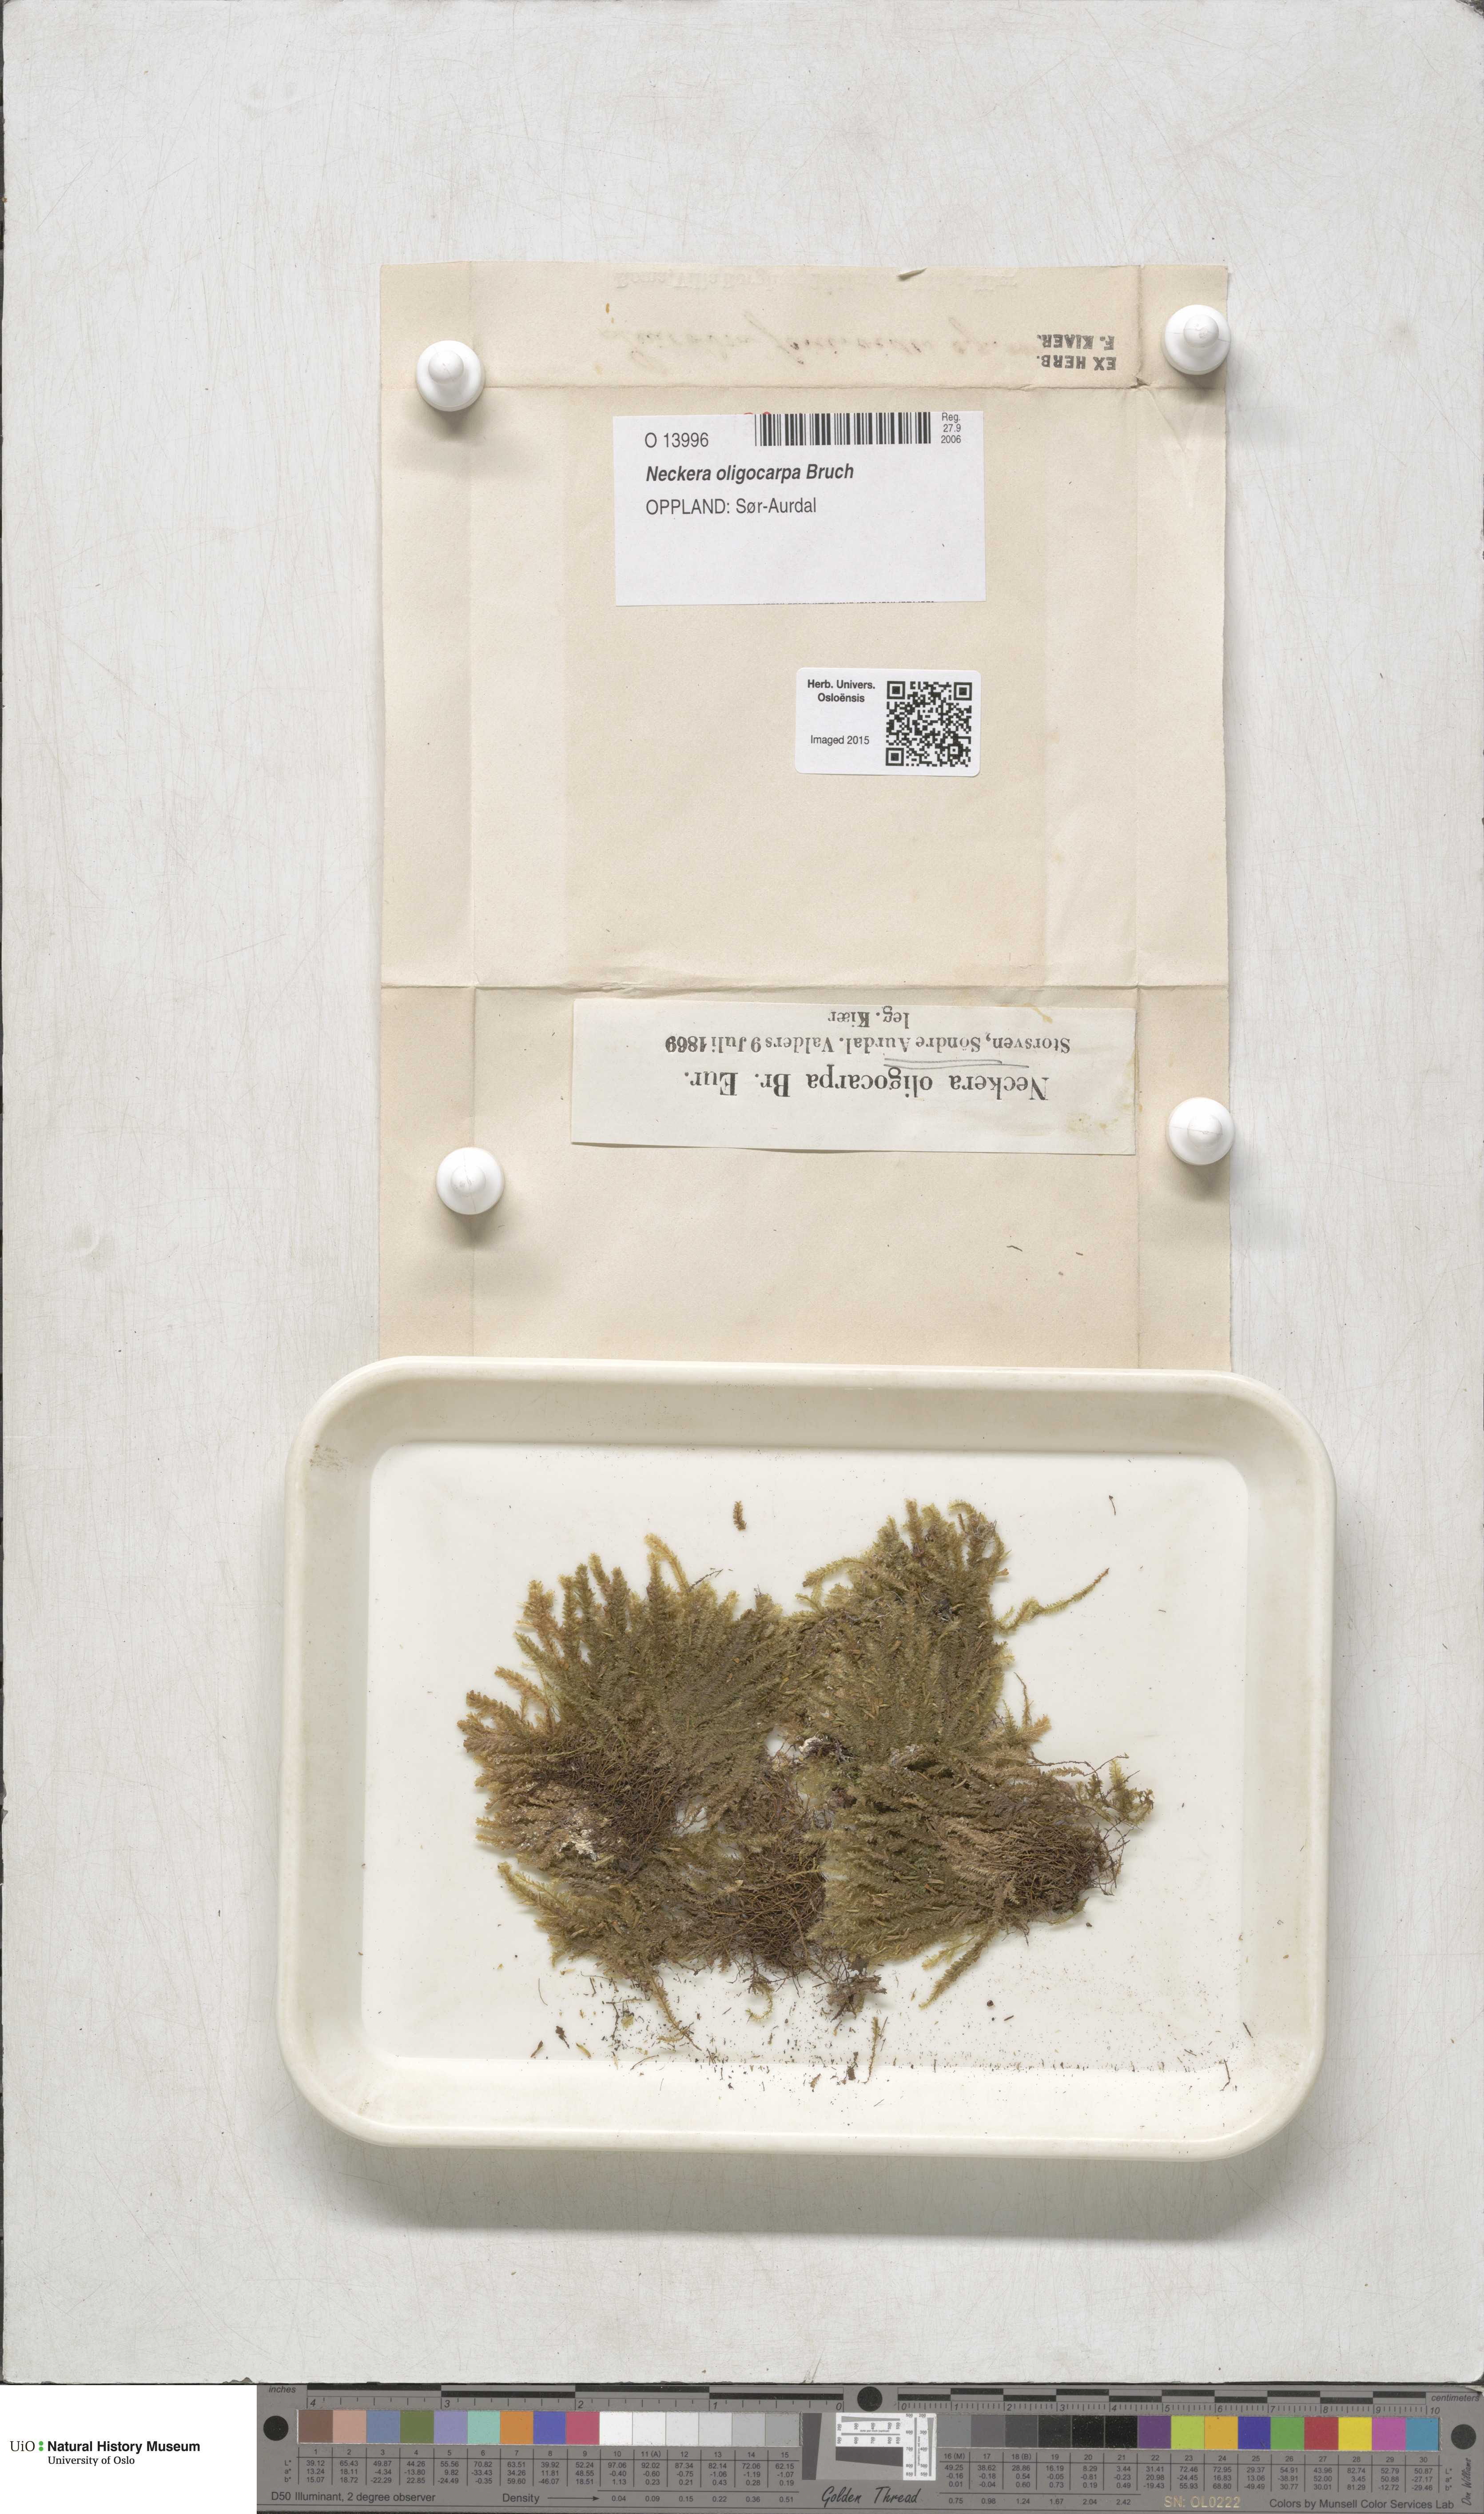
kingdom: Plantae
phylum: Bryophyta
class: Bryopsida
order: Hypnales
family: Neckeraceae
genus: Neckera
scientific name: Neckera oligocarpa
